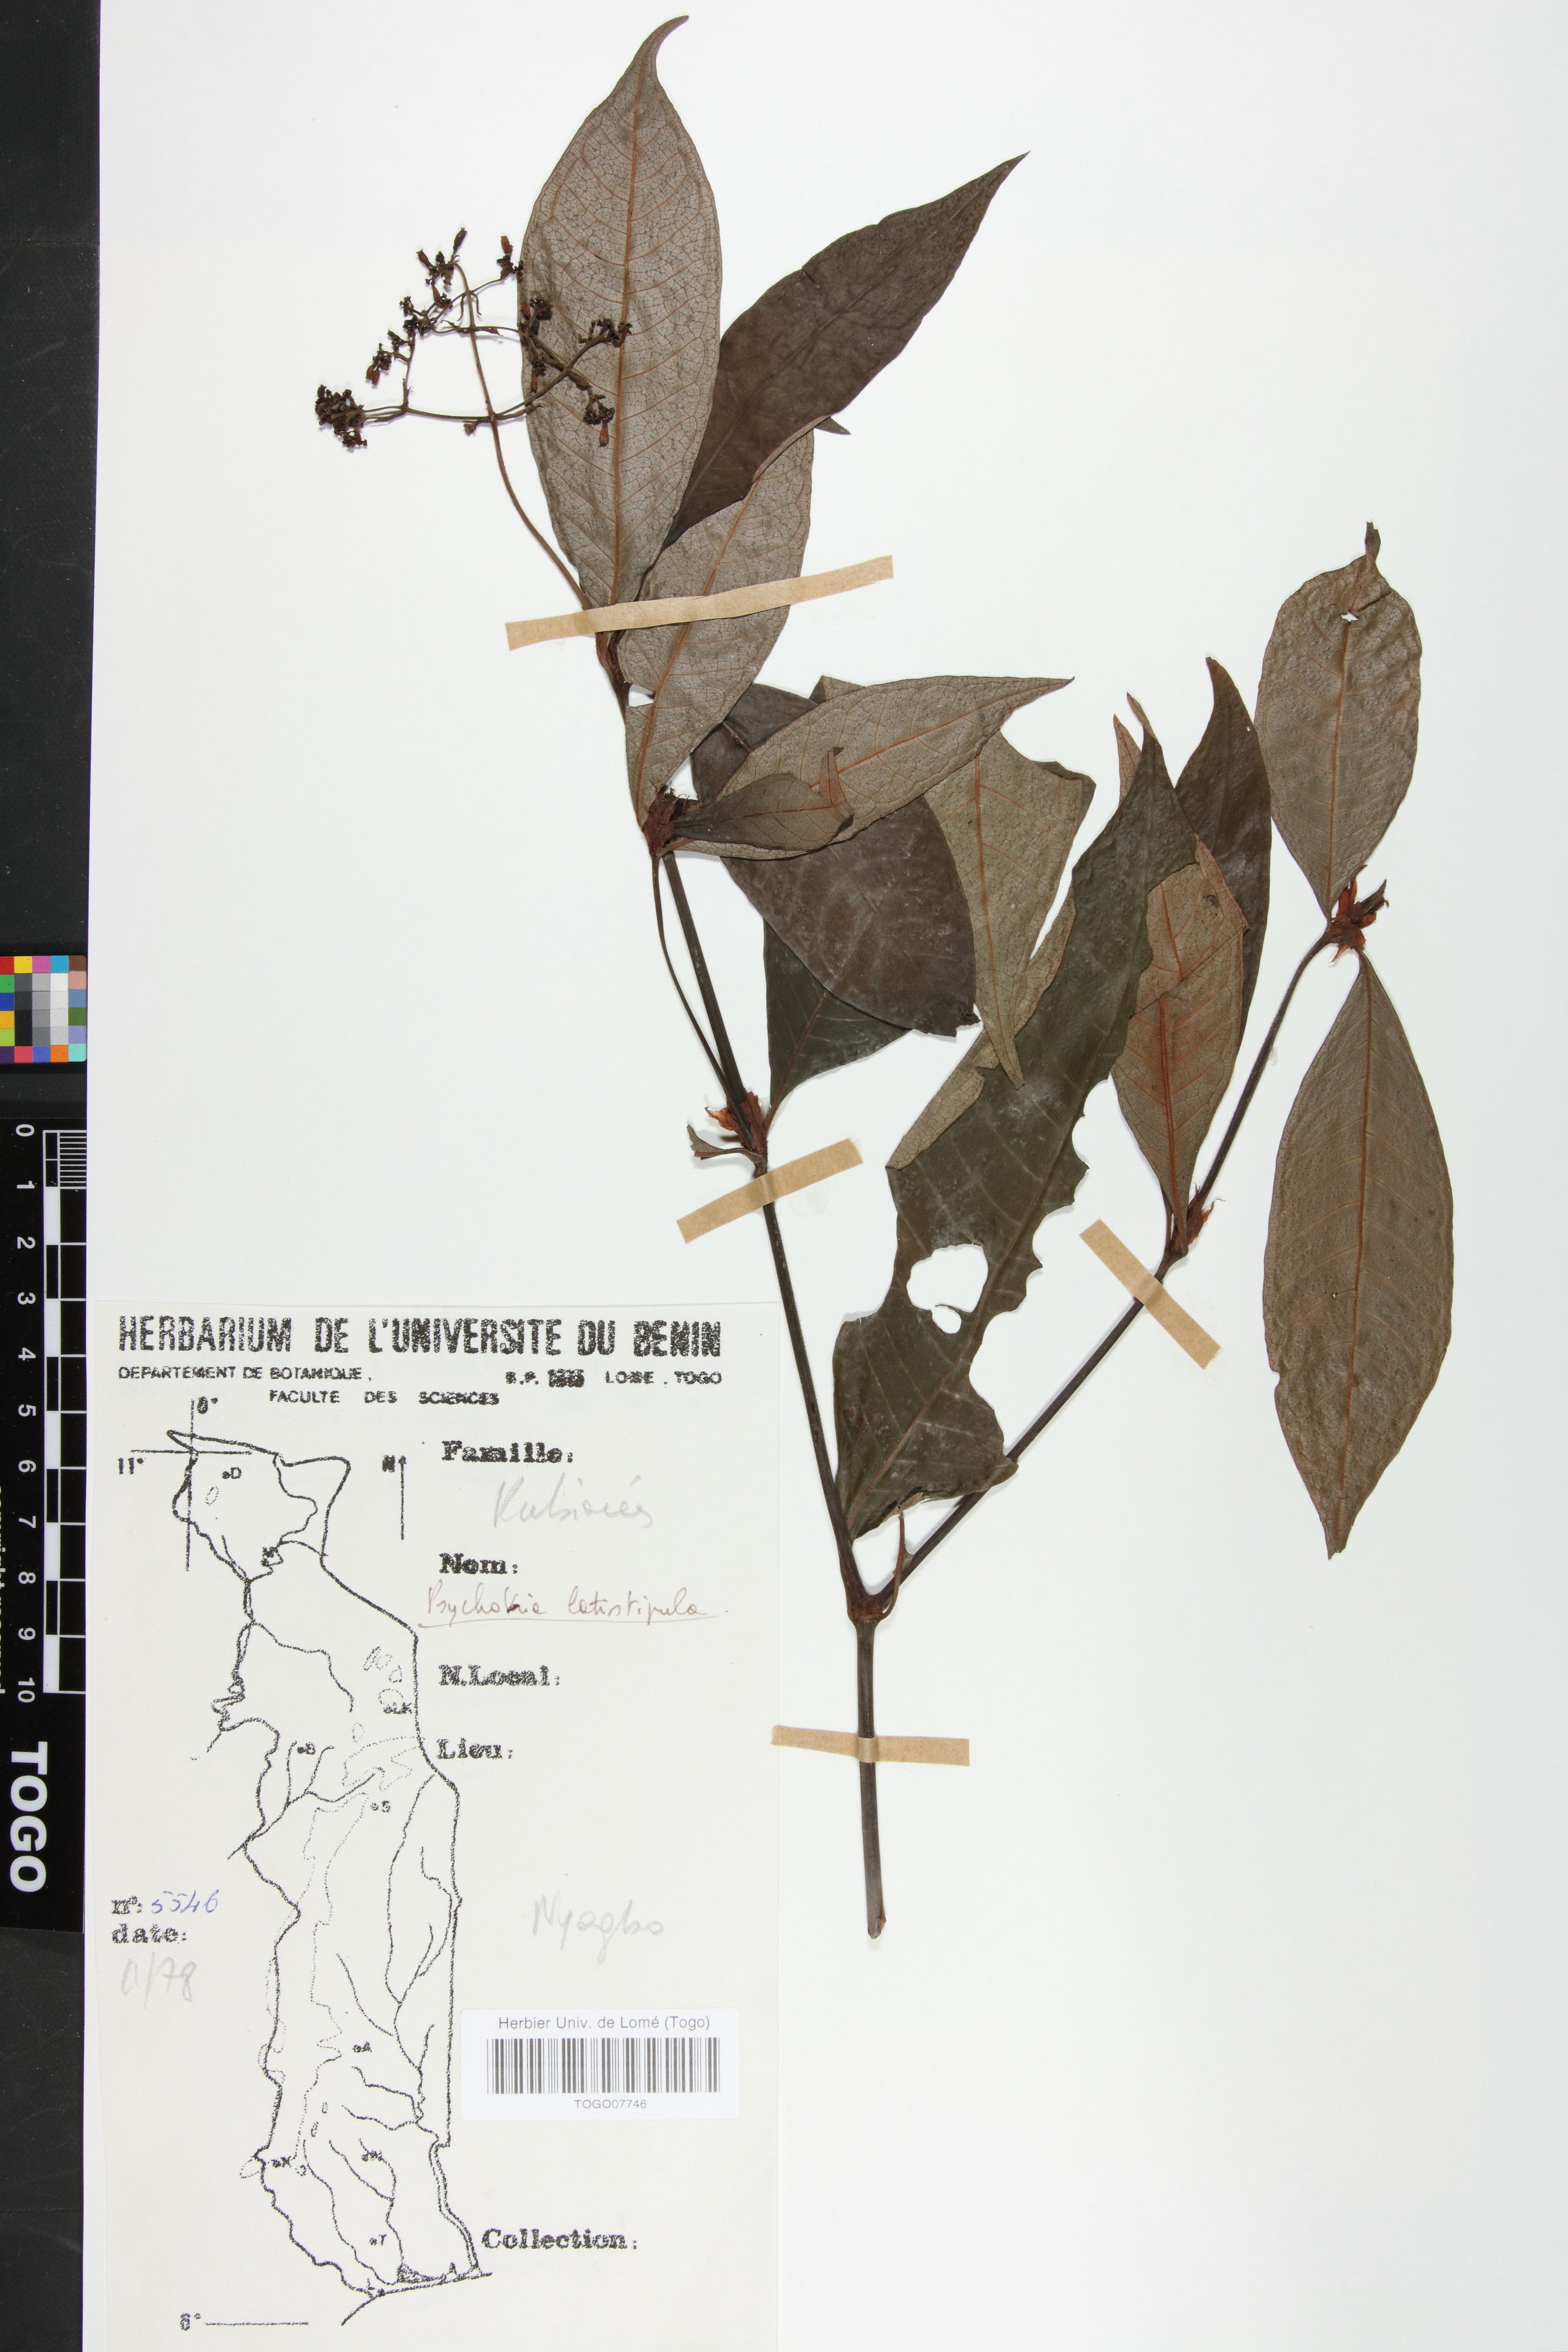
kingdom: Plantae
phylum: Tracheophyta
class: Magnoliopsida
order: Gentianales
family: Rubiaceae
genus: Psychotria
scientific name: Psychotria latistipula
